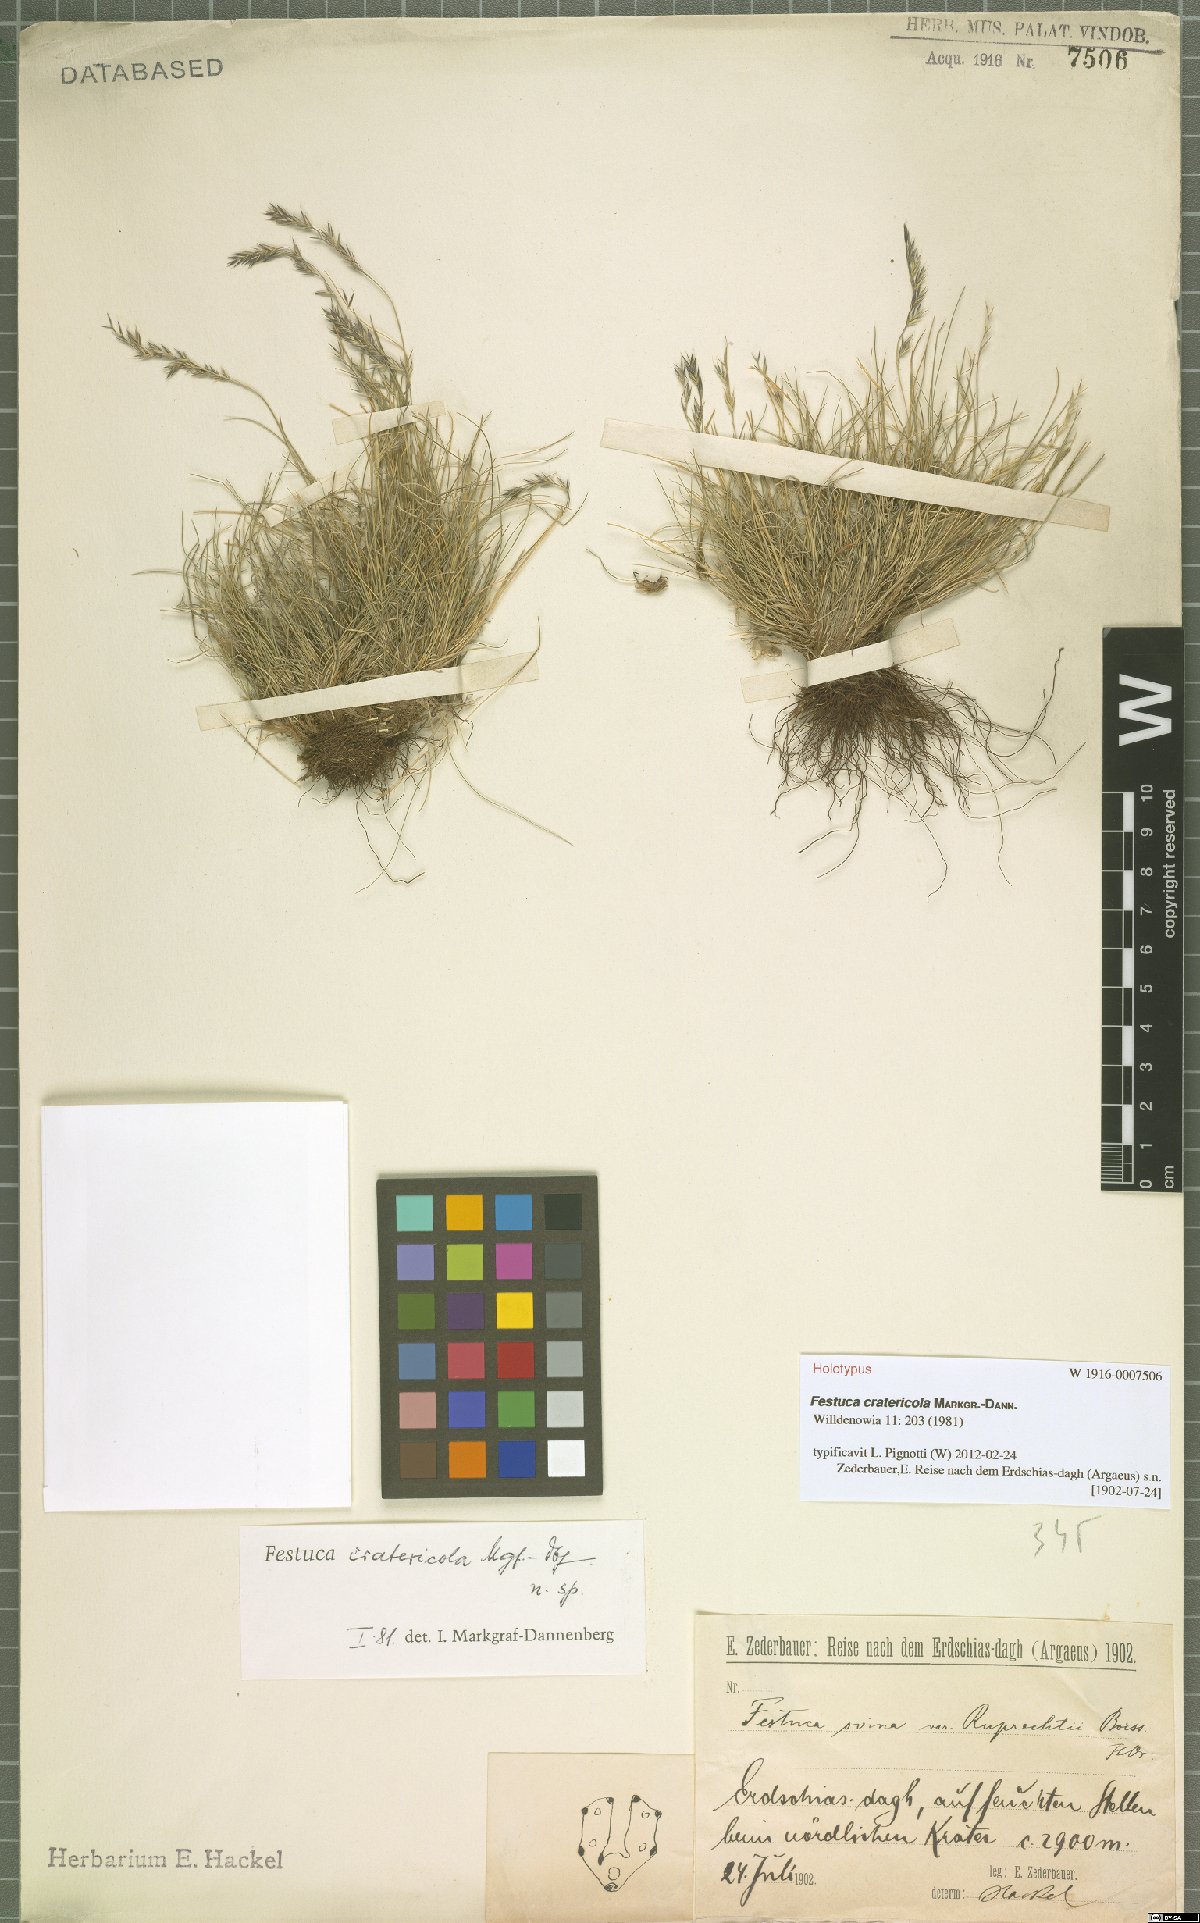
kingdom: Plantae
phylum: Tracheophyta
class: Liliopsida
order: Poales
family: Poaceae
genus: Festuca
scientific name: Festuca cratericola
